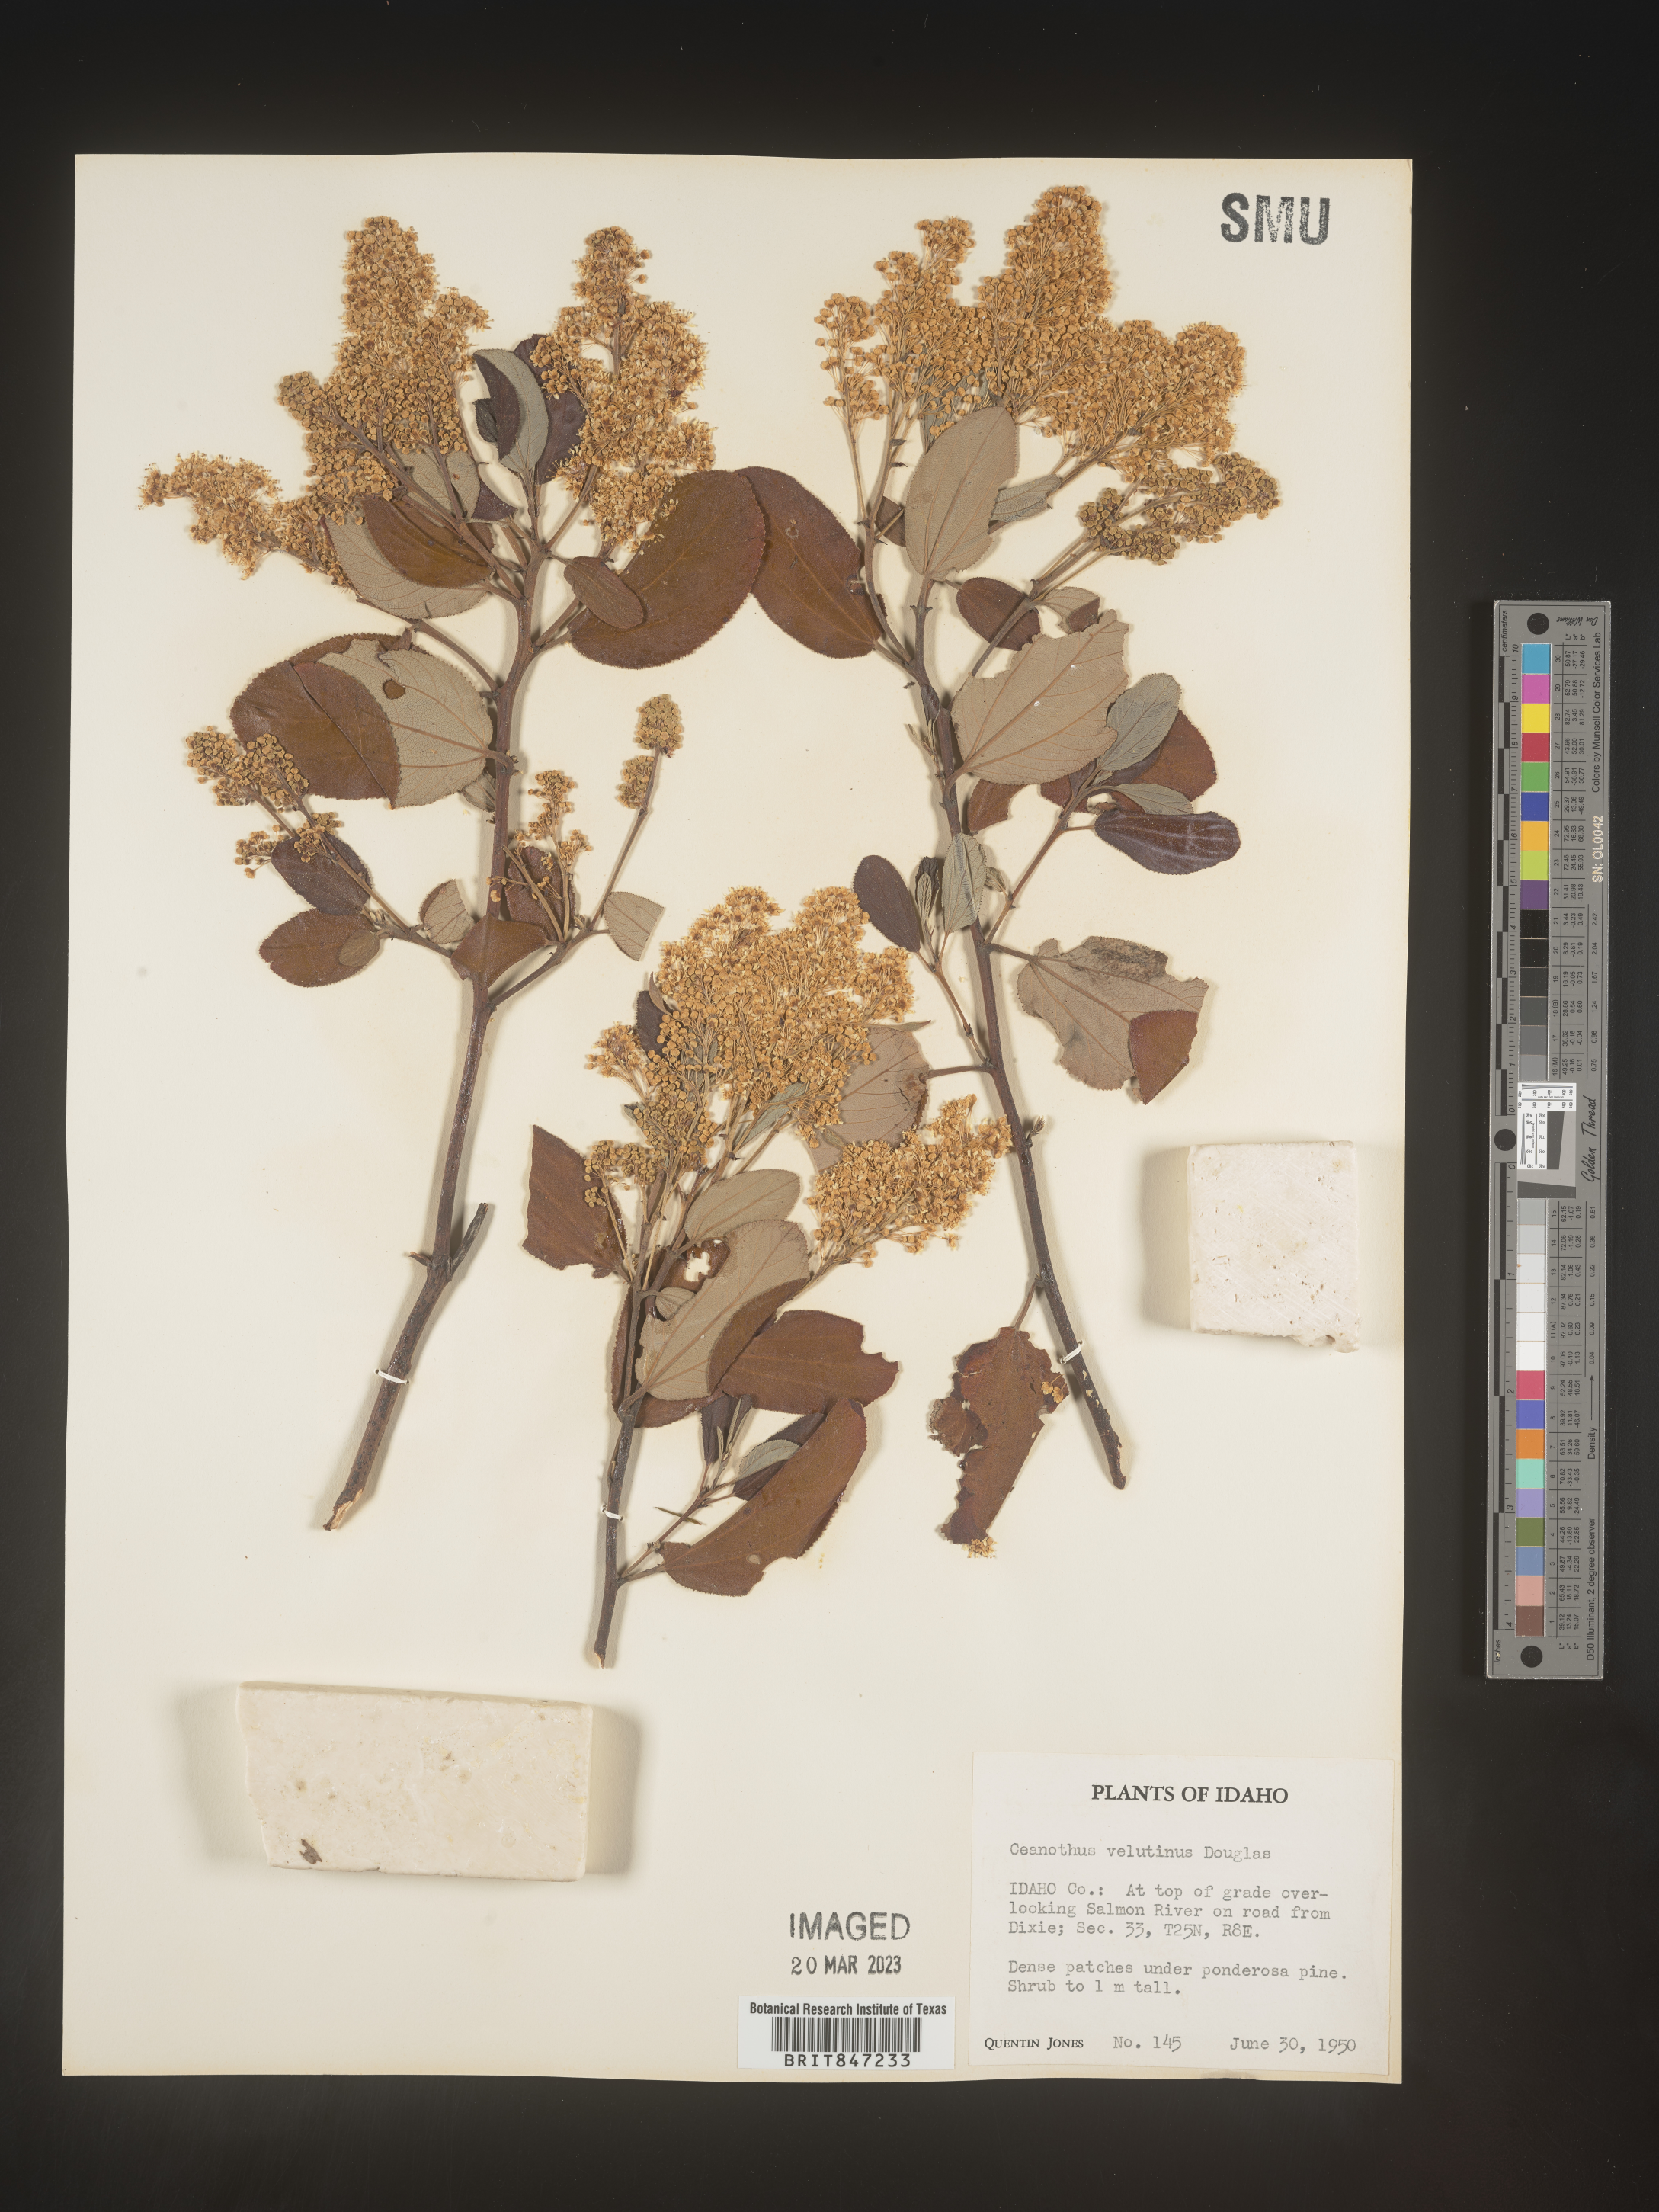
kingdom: Plantae
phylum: Tracheophyta
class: Magnoliopsida
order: Rosales
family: Rhamnaceae
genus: Ceanothus
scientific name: Ceanothus velutinus
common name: Snowbrush
